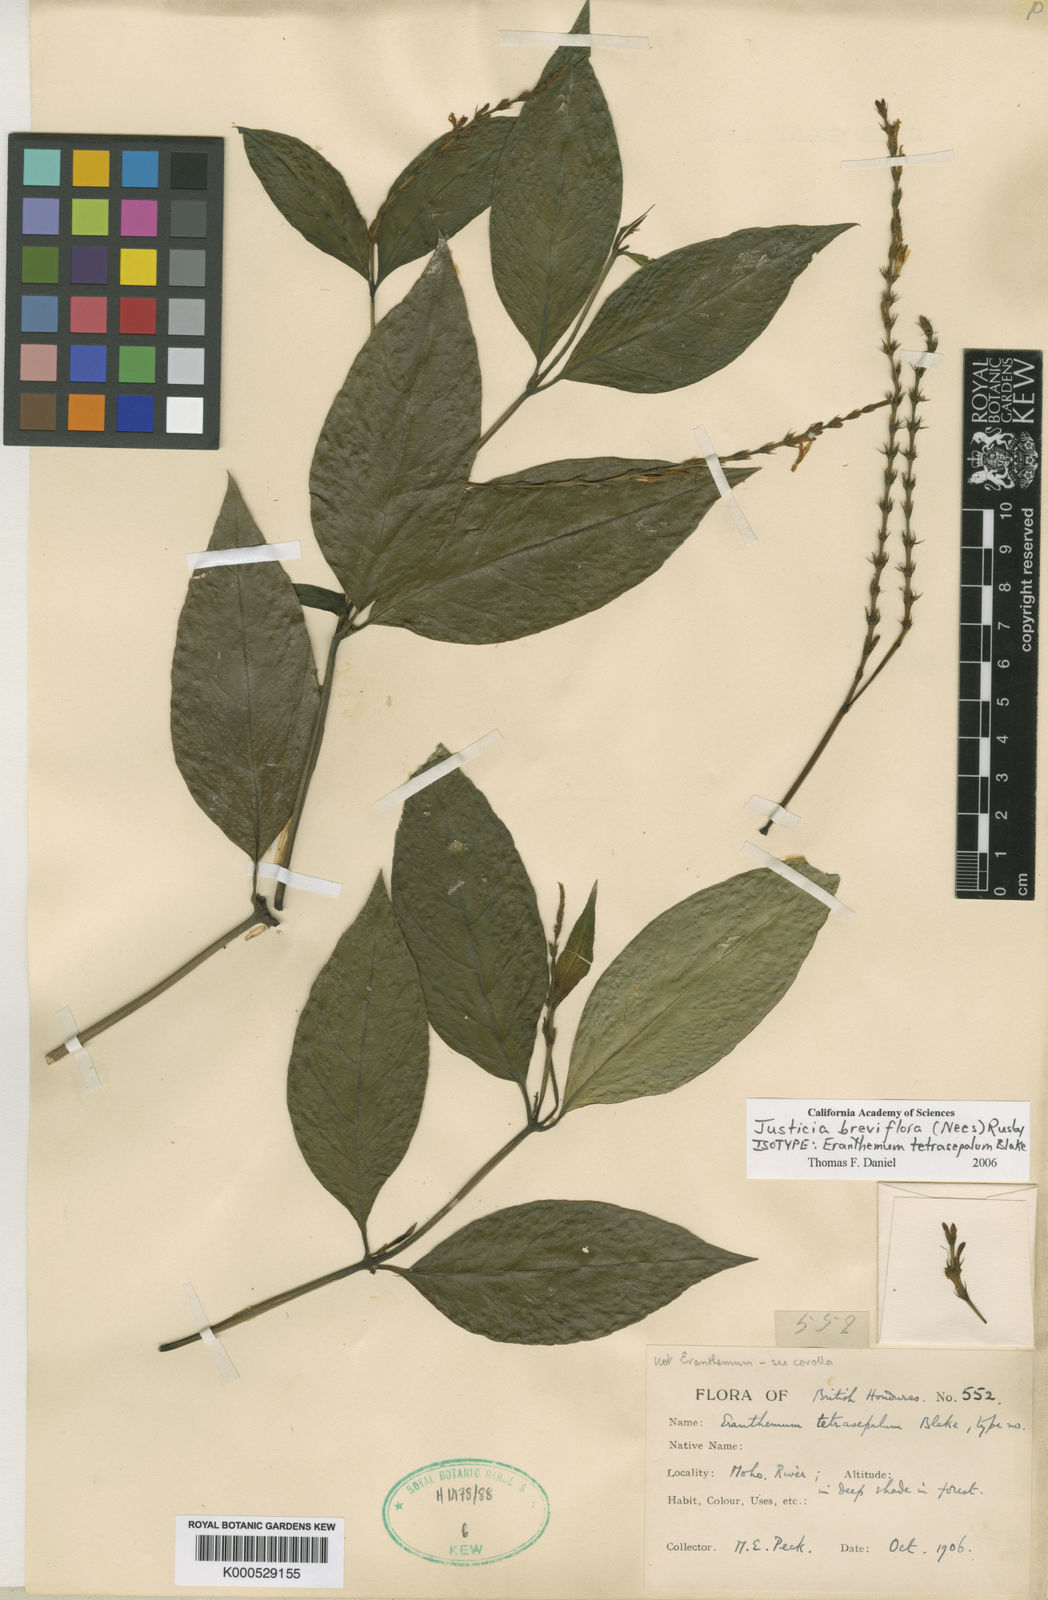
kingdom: Plantae
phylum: Tracheophyta
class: Magnoliopsida
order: Lamiales
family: Acanthaceae
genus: Dianthera
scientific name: Dianthera breviflora
